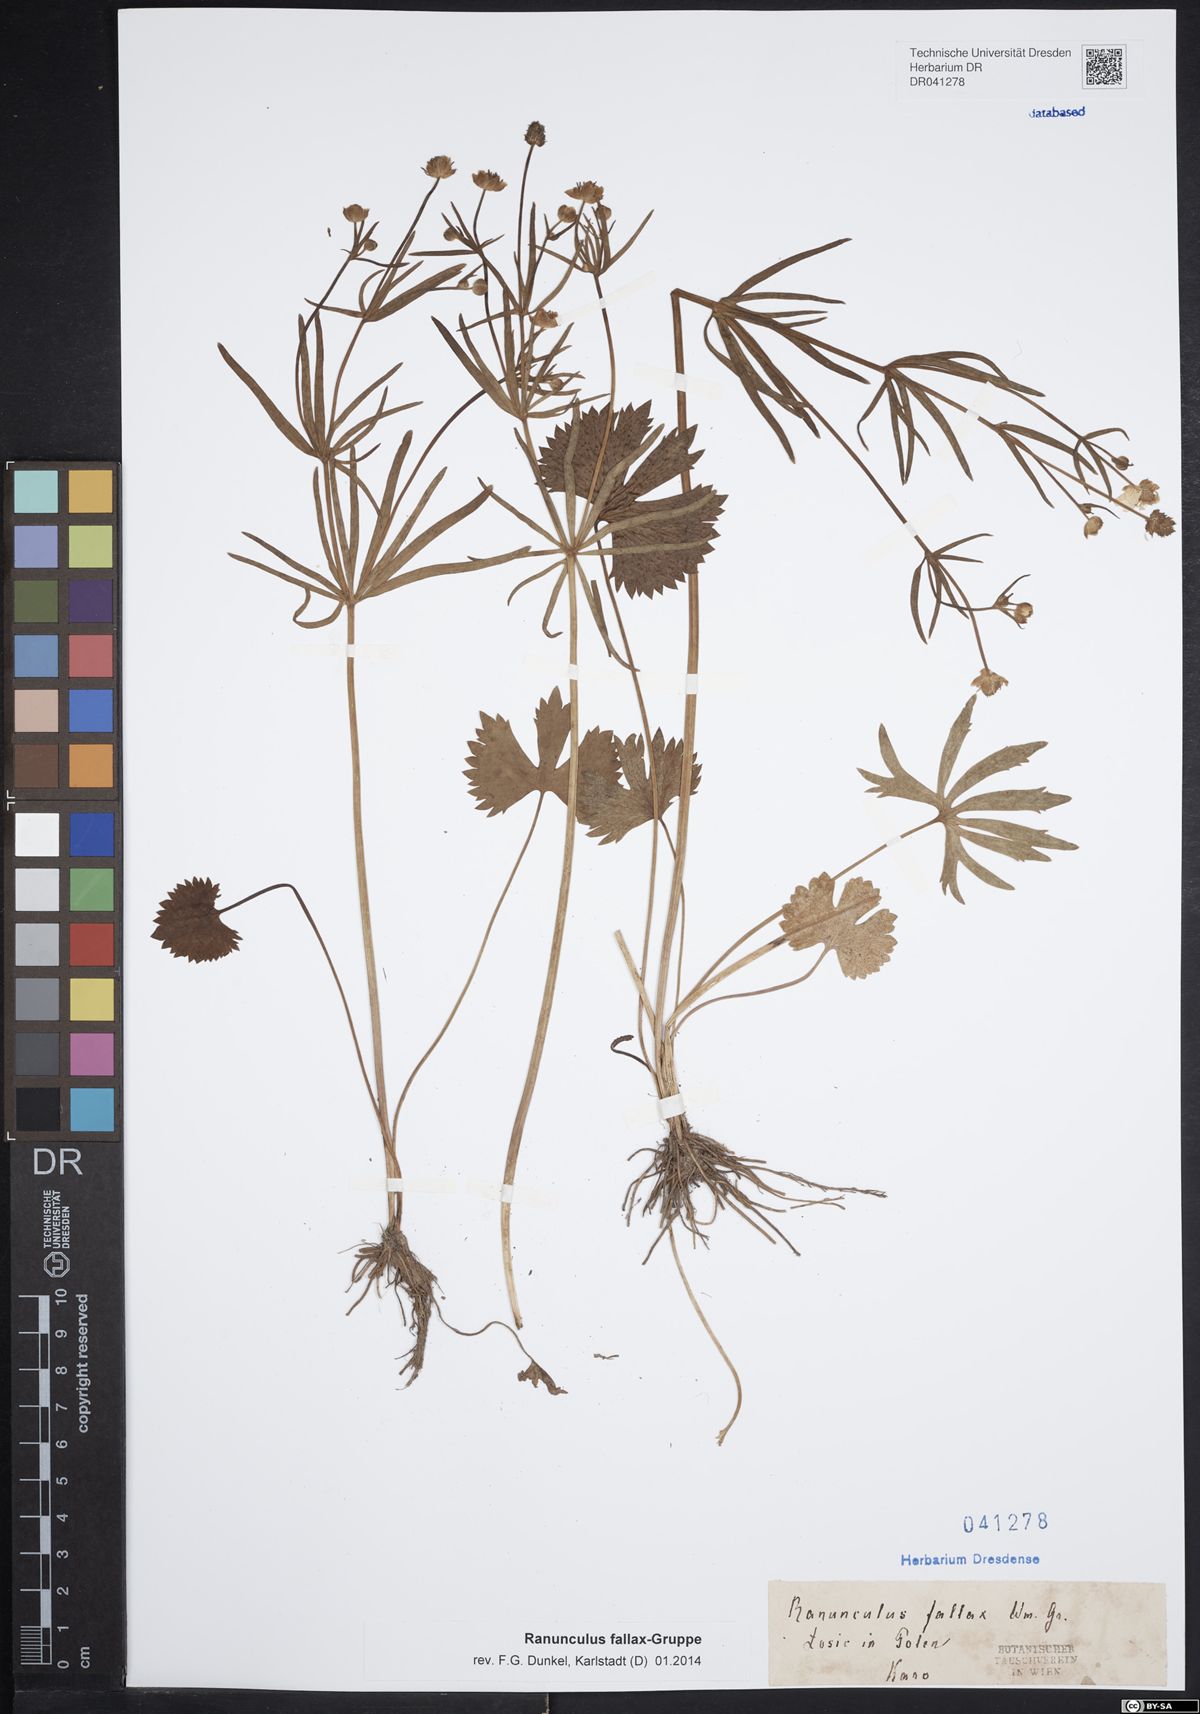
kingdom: Plantae
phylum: Tracheophyta
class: Magnoliopsida
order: Ranunculales
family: Ranunculaceae
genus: Ranunculus
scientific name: Ranunculus fallax
